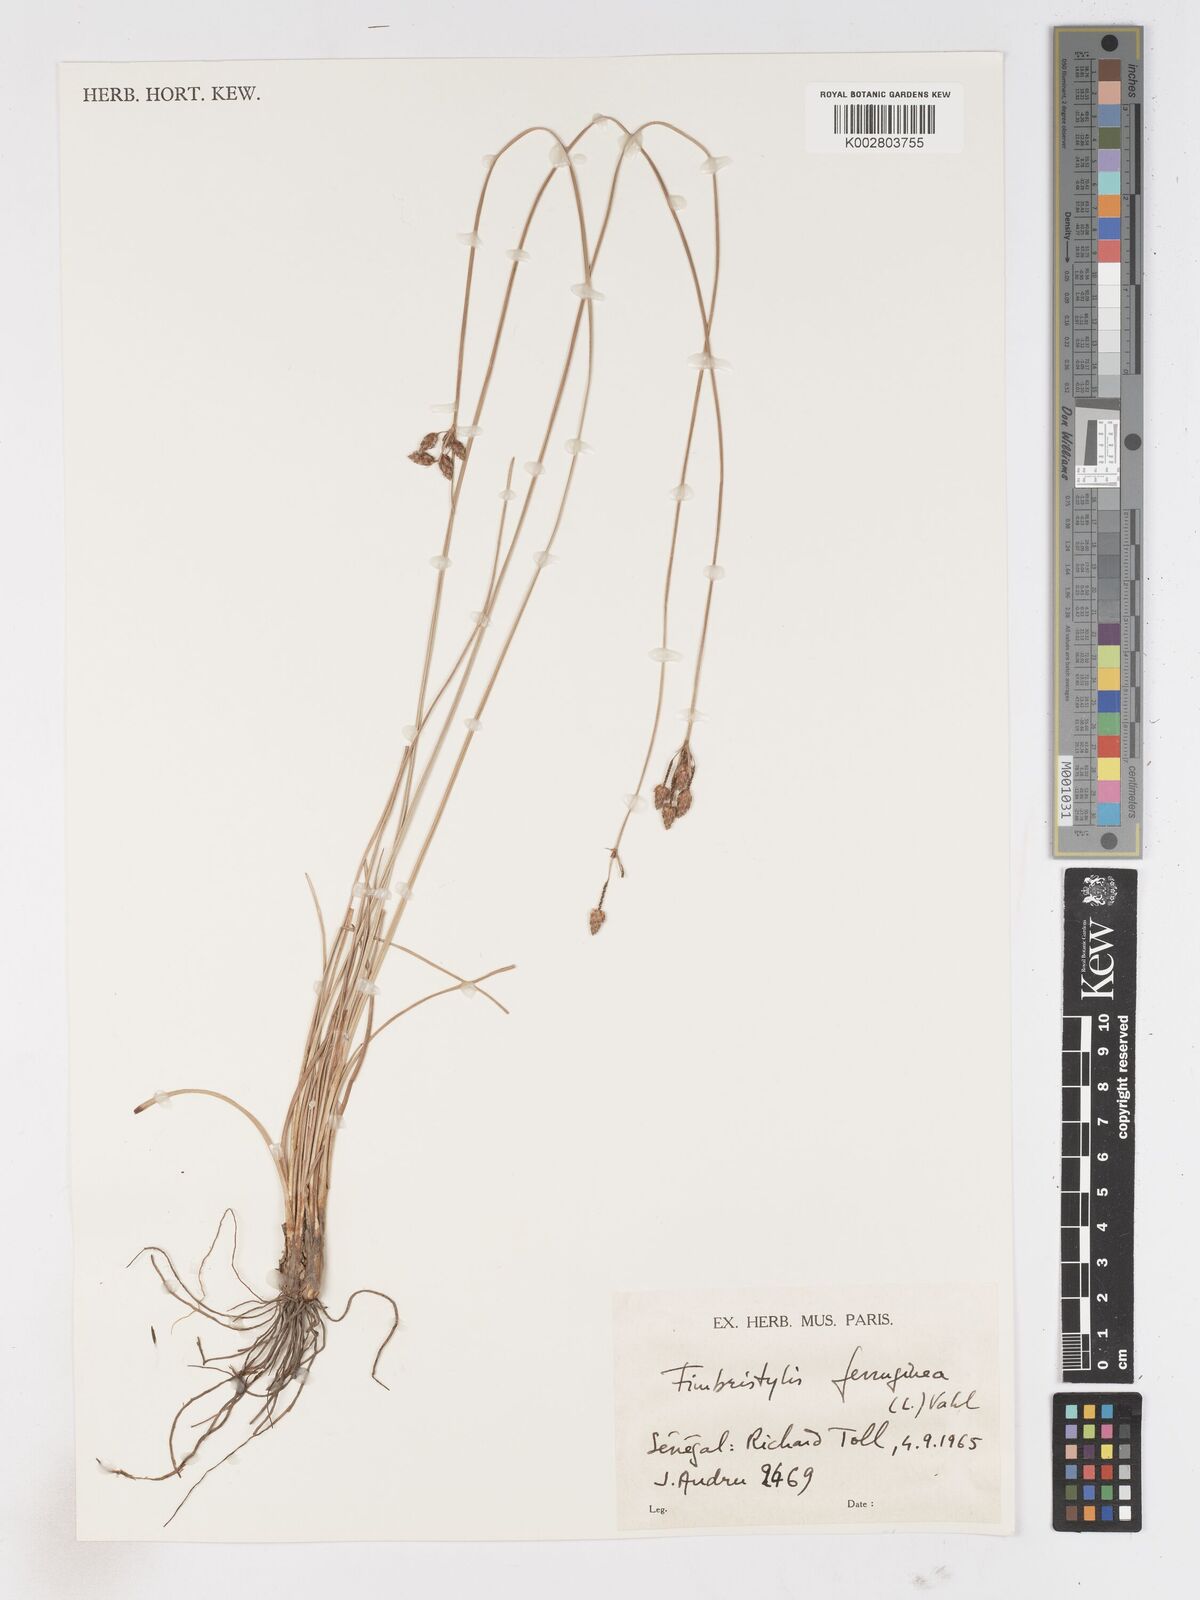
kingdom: Plantae
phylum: Tracheophyta
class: Liliopsida
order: Poales
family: Cyperaceae
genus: Fimbristylis
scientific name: Fimbristylis ferruginea
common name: West indian fimbry
